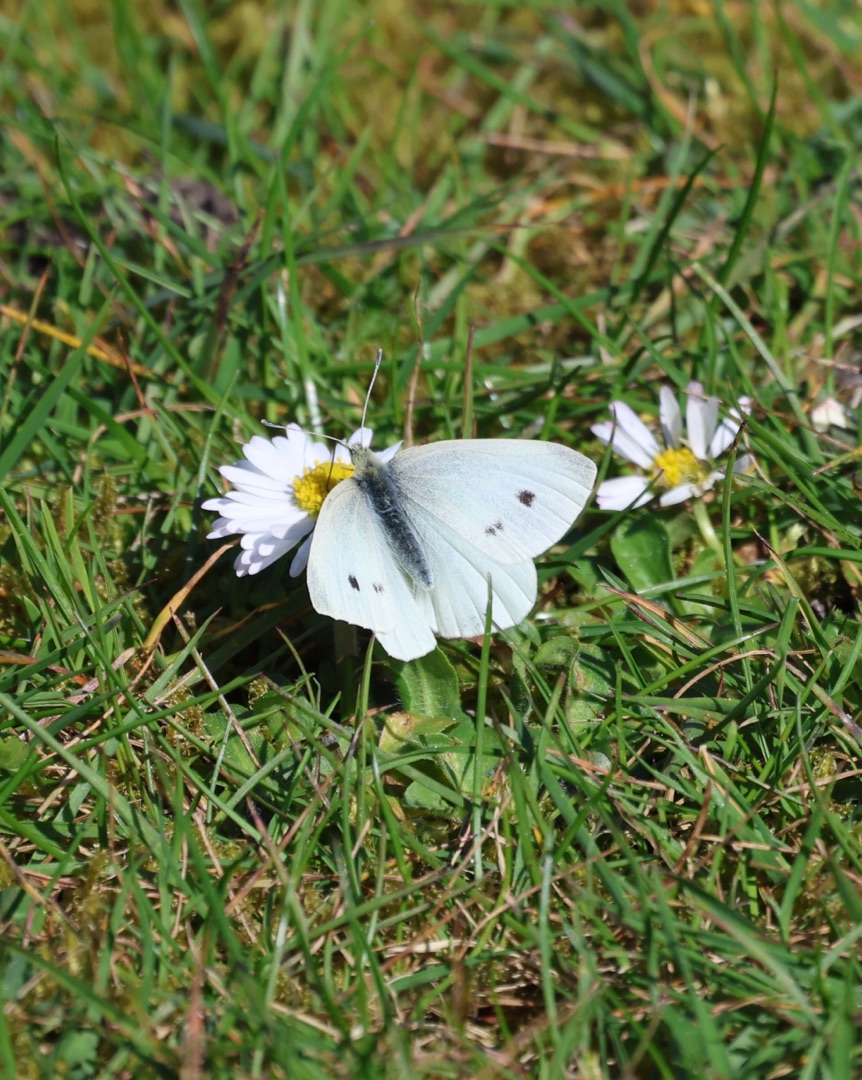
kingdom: Animalia
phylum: Arthropoda
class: Insecta
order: Lepidoptera
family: Pieridae
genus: Pieris
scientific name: Pieris rapae
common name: Lille kålsommerfugl
